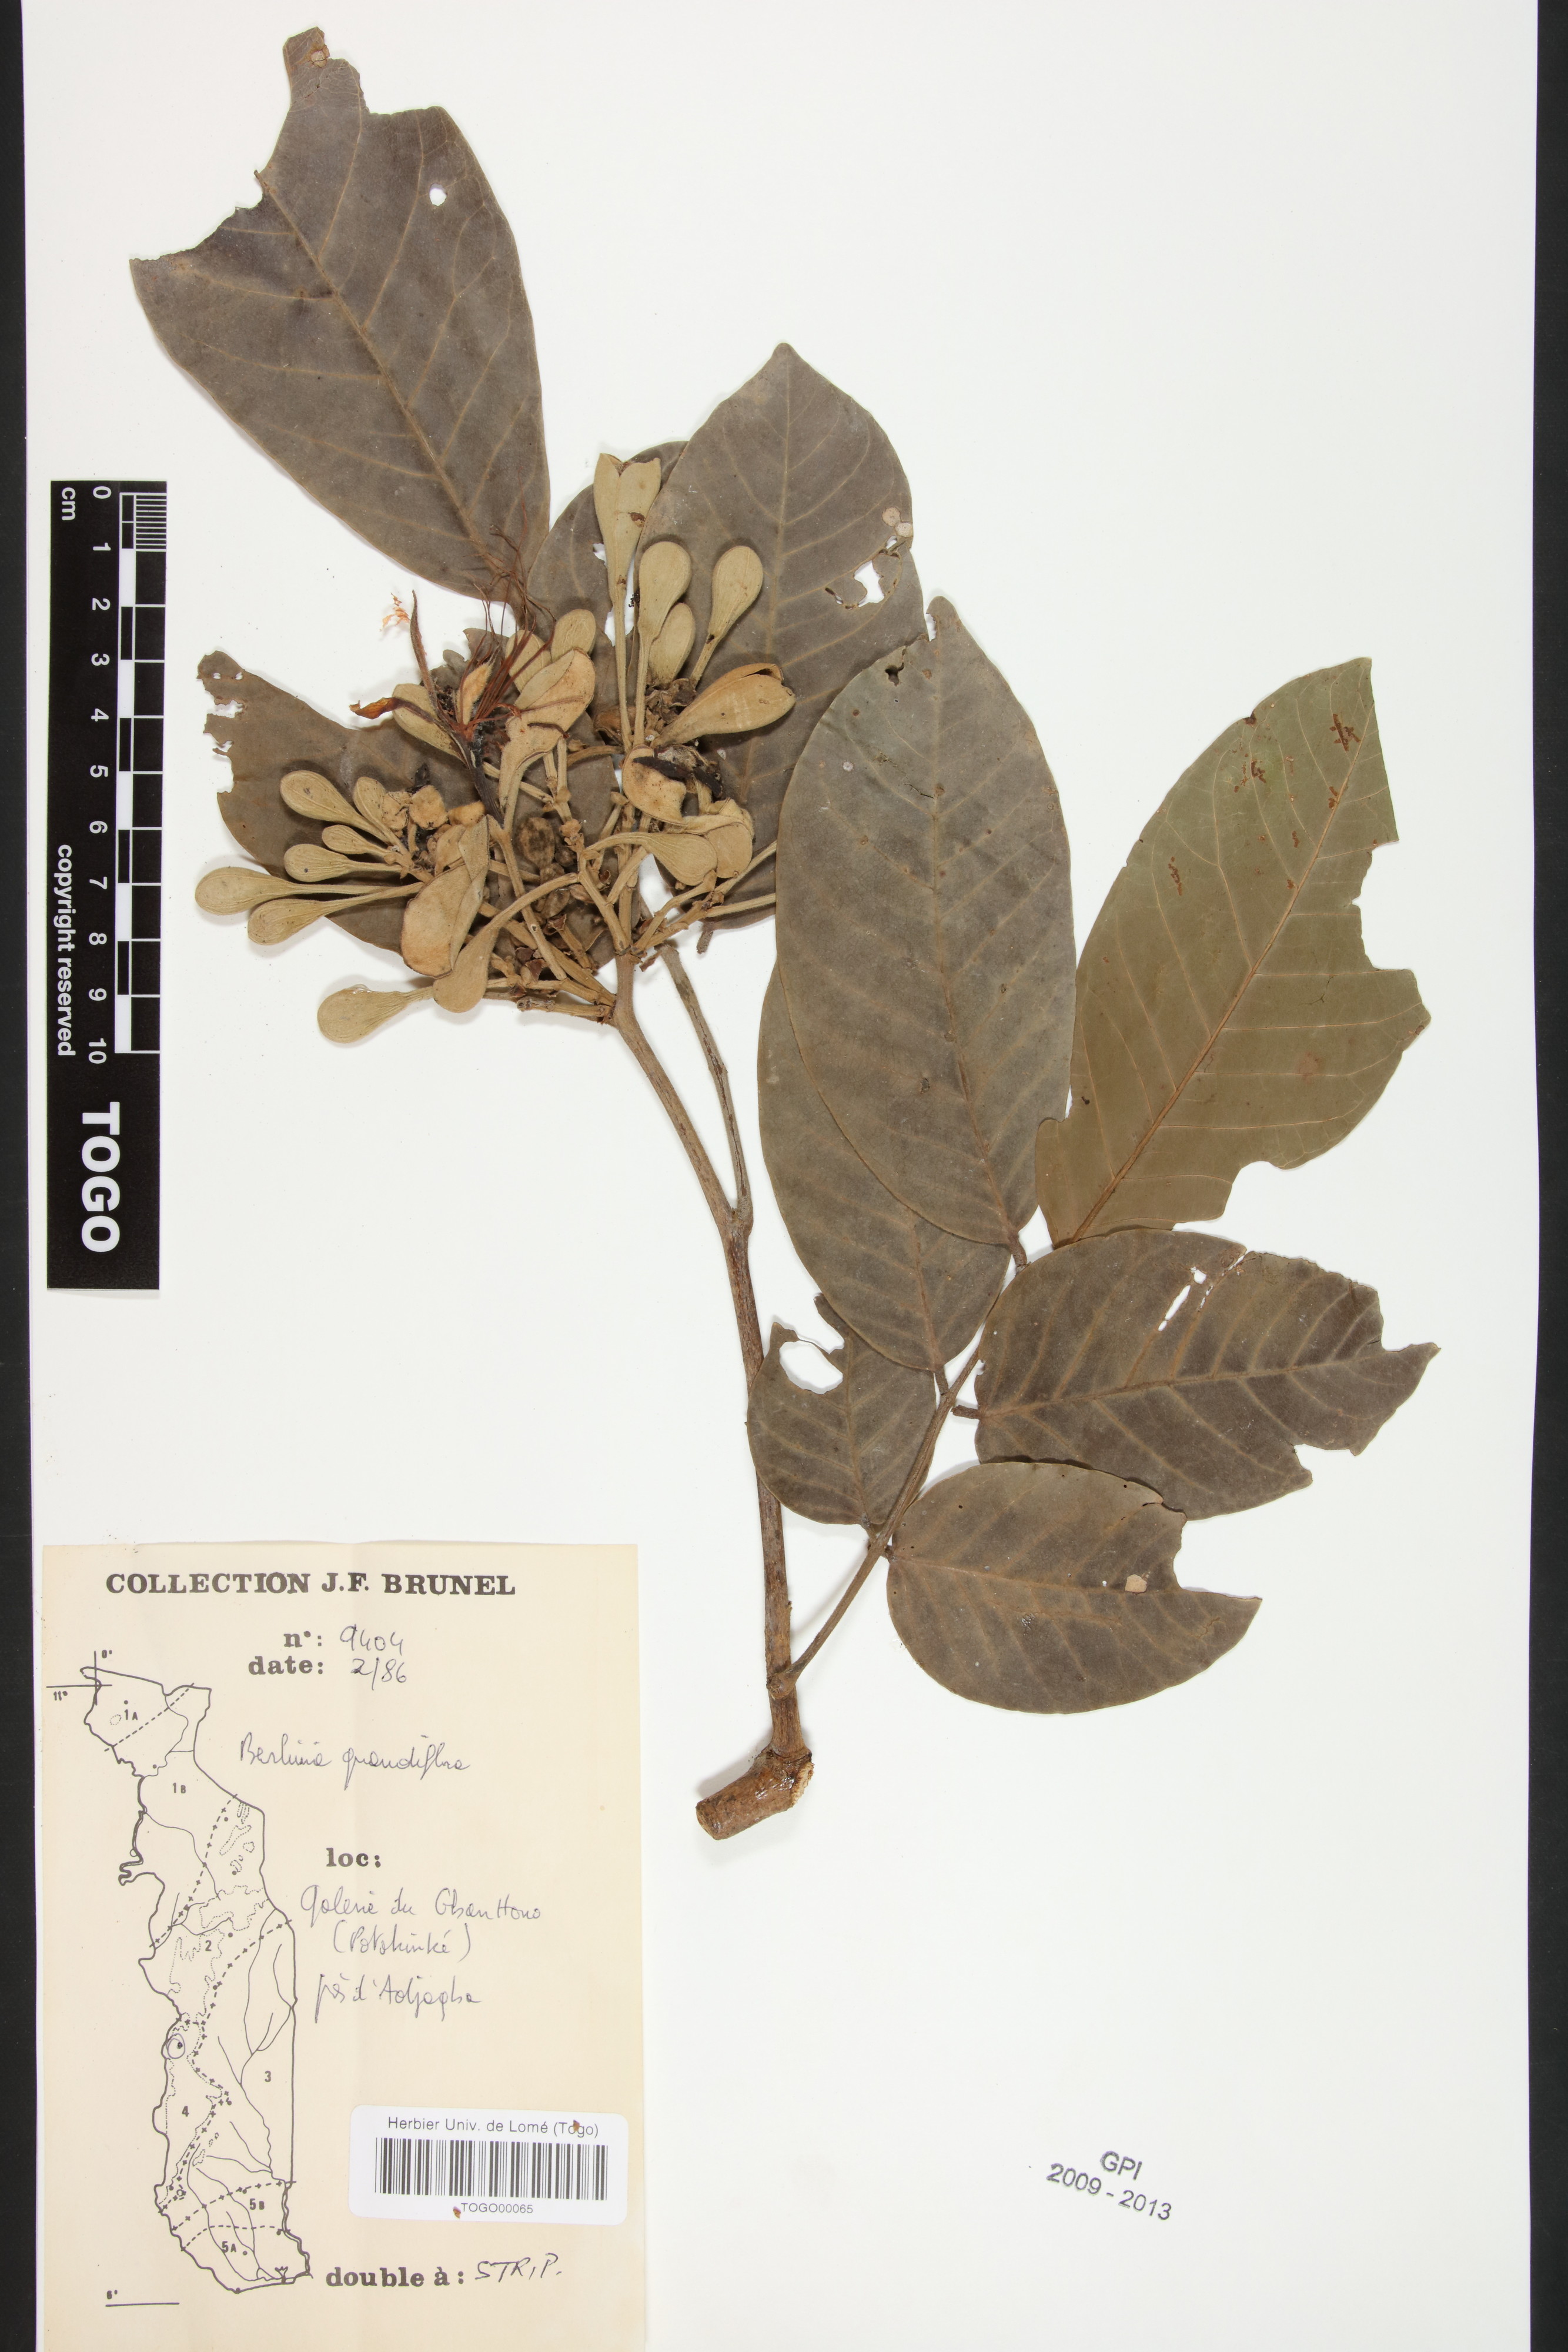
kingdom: Plantae
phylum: Tracheophyta
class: Magnoliopsida
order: Fabales
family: Fabaceae
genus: Berlinia
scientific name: Berlinia grandiflora
